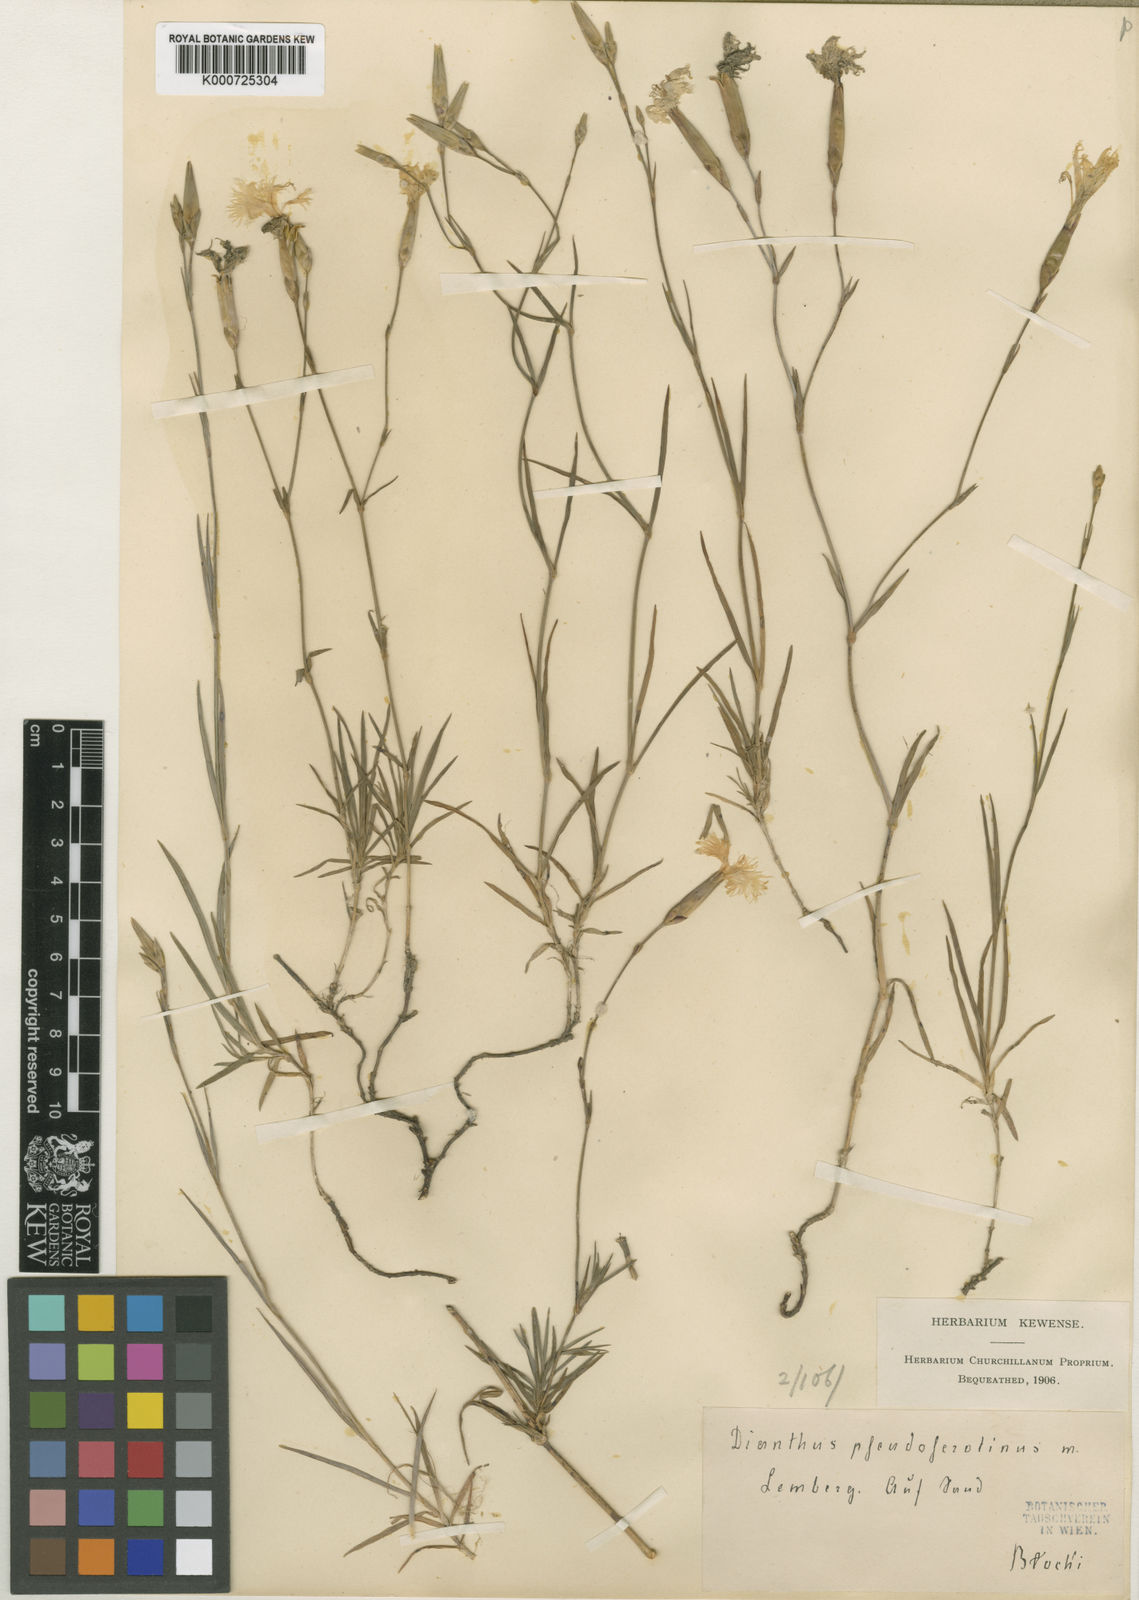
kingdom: Plantae
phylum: Tracheophyta
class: Magnoliopsida
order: Caryophyllales
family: Caryophyllaceae
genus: Dianthus
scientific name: Dianthus arenarius
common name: Stone pink
